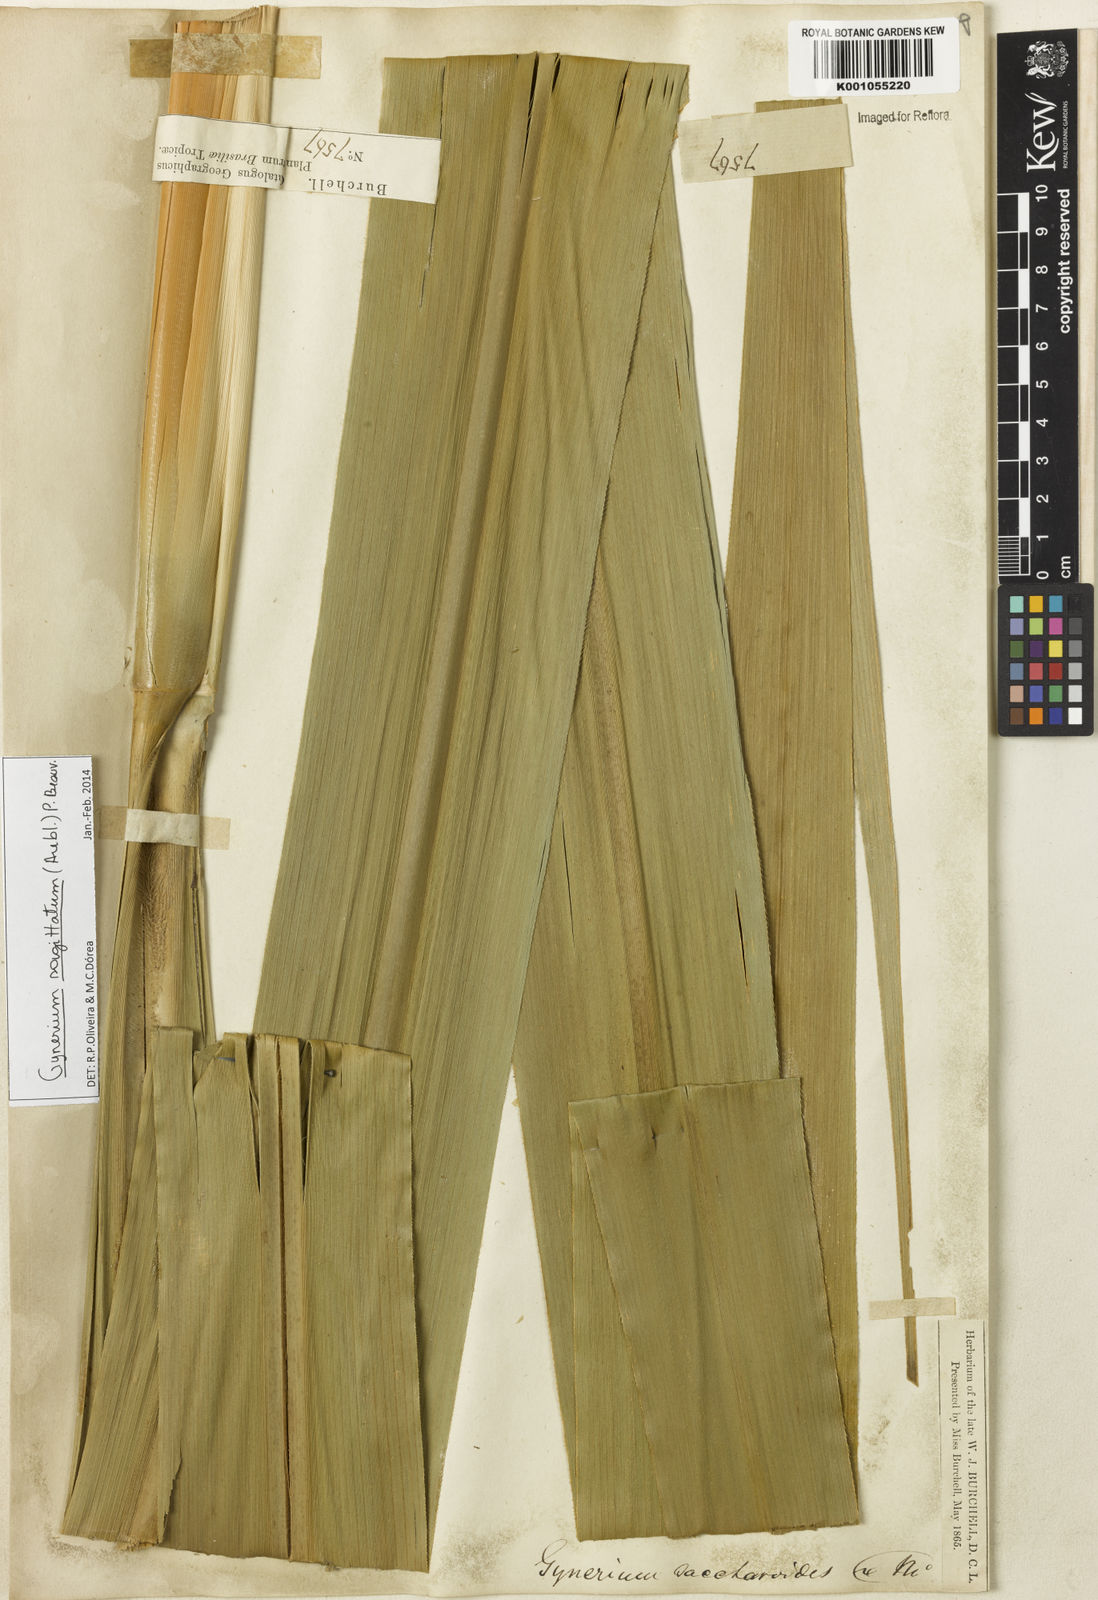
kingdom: Plantae
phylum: Tracheophyta
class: Liliopsida
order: Poales
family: Poaceae
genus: Gynerium
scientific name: Gynerium sagittatum
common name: Wild cane
